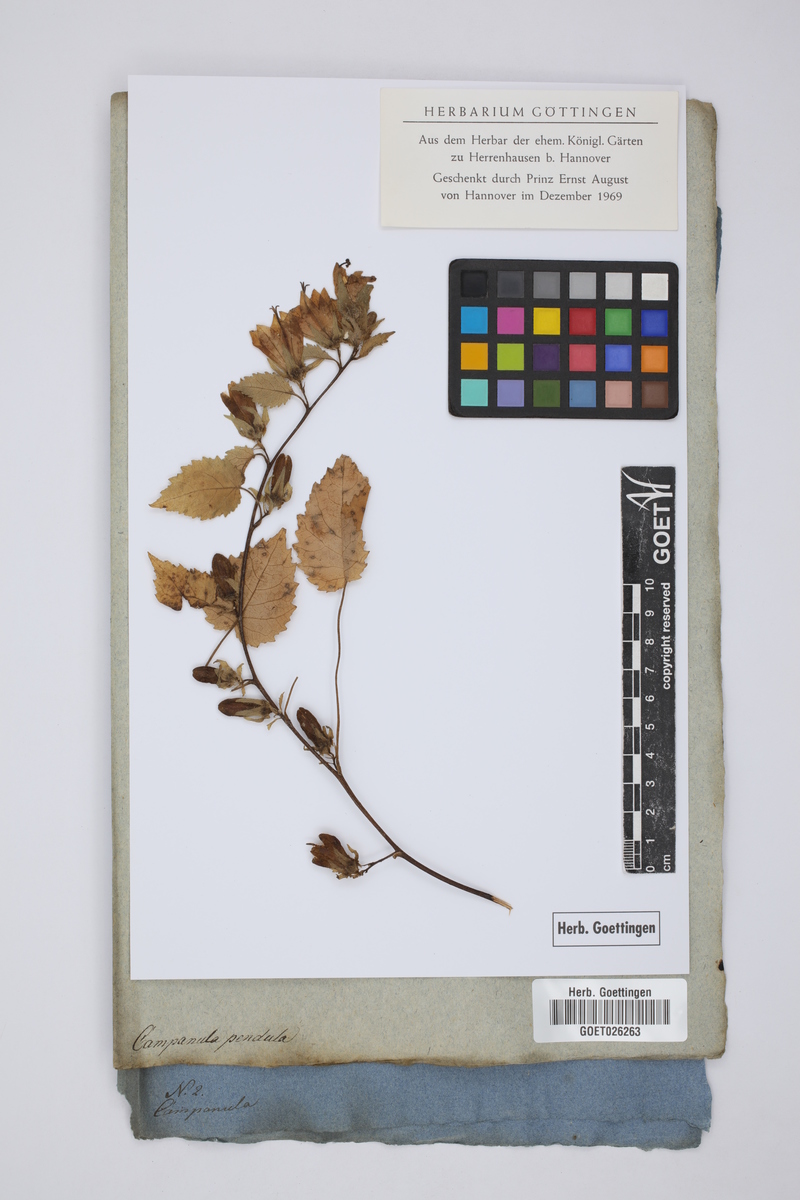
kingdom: Plantae
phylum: Tracheophyta
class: Magnoliopsida
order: Asterales
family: Campanulaceae
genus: Campanula
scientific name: Campanula pendula
